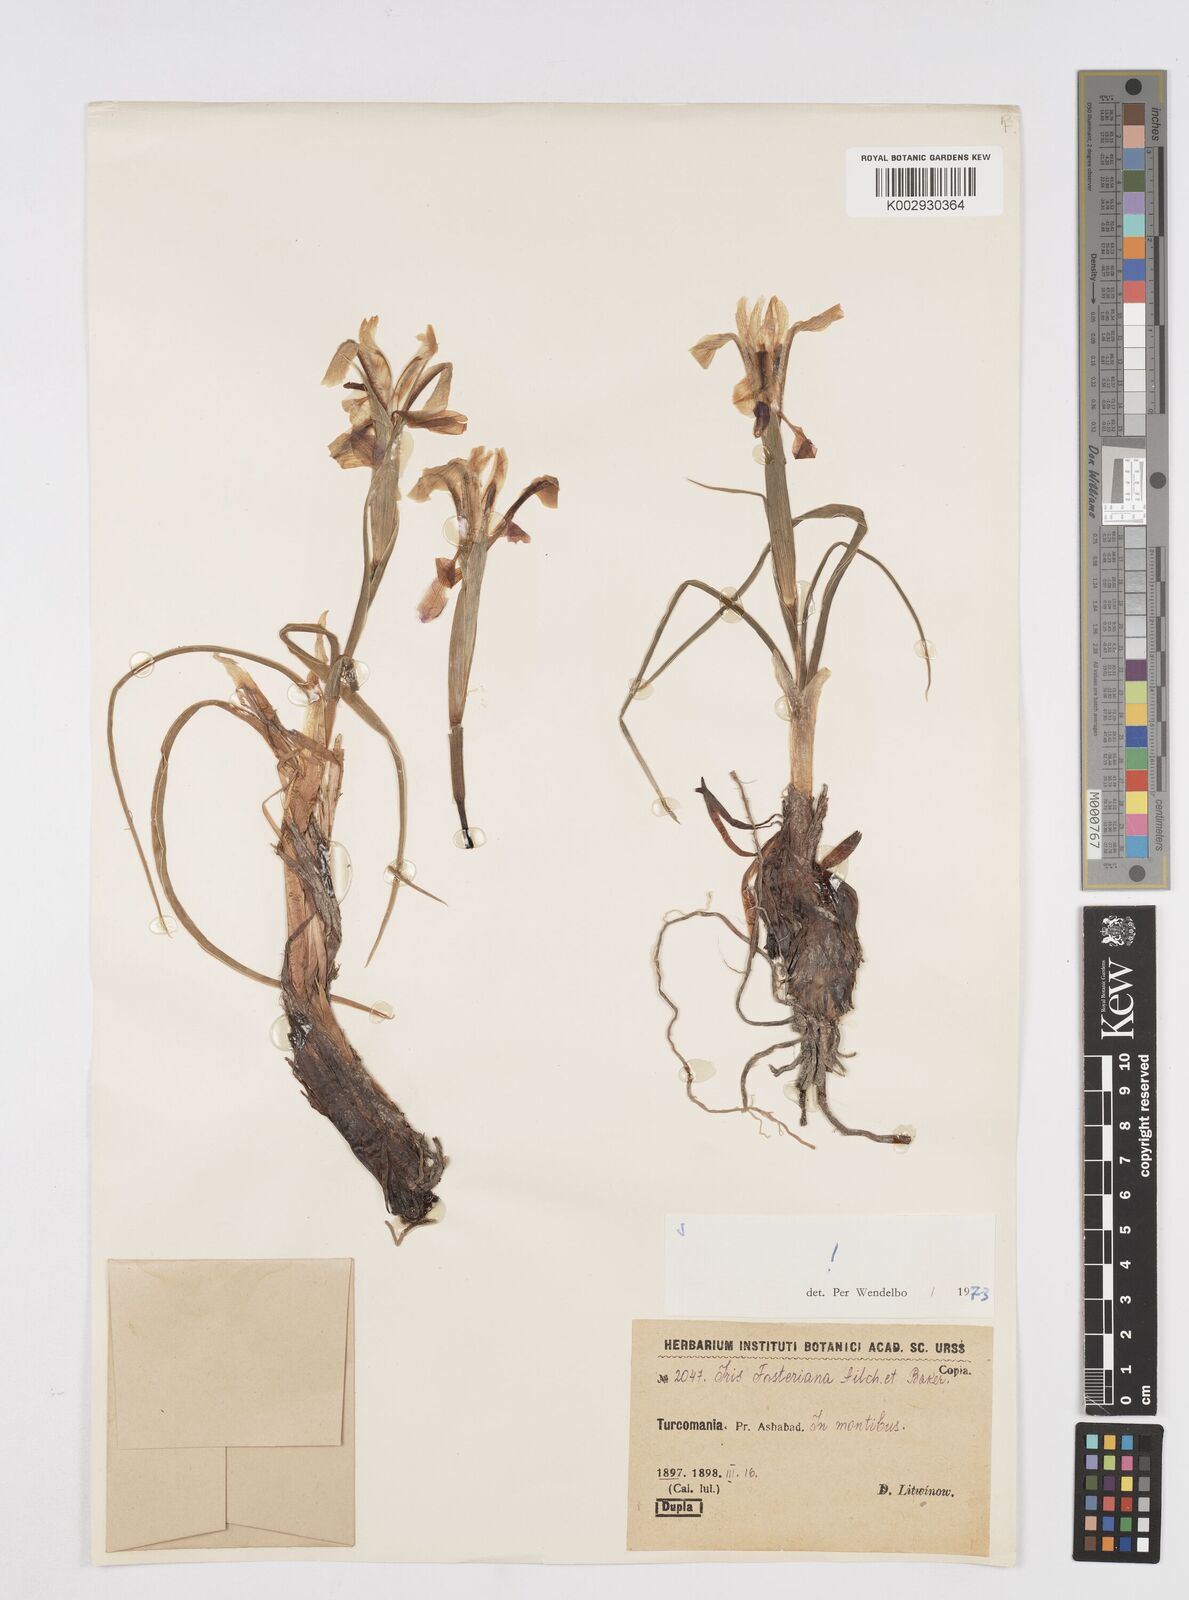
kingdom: Plantae
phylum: Tracheophyta
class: Liliopsida
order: Asparagales
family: Iridaceae
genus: Iris
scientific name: Iris fosteriana
